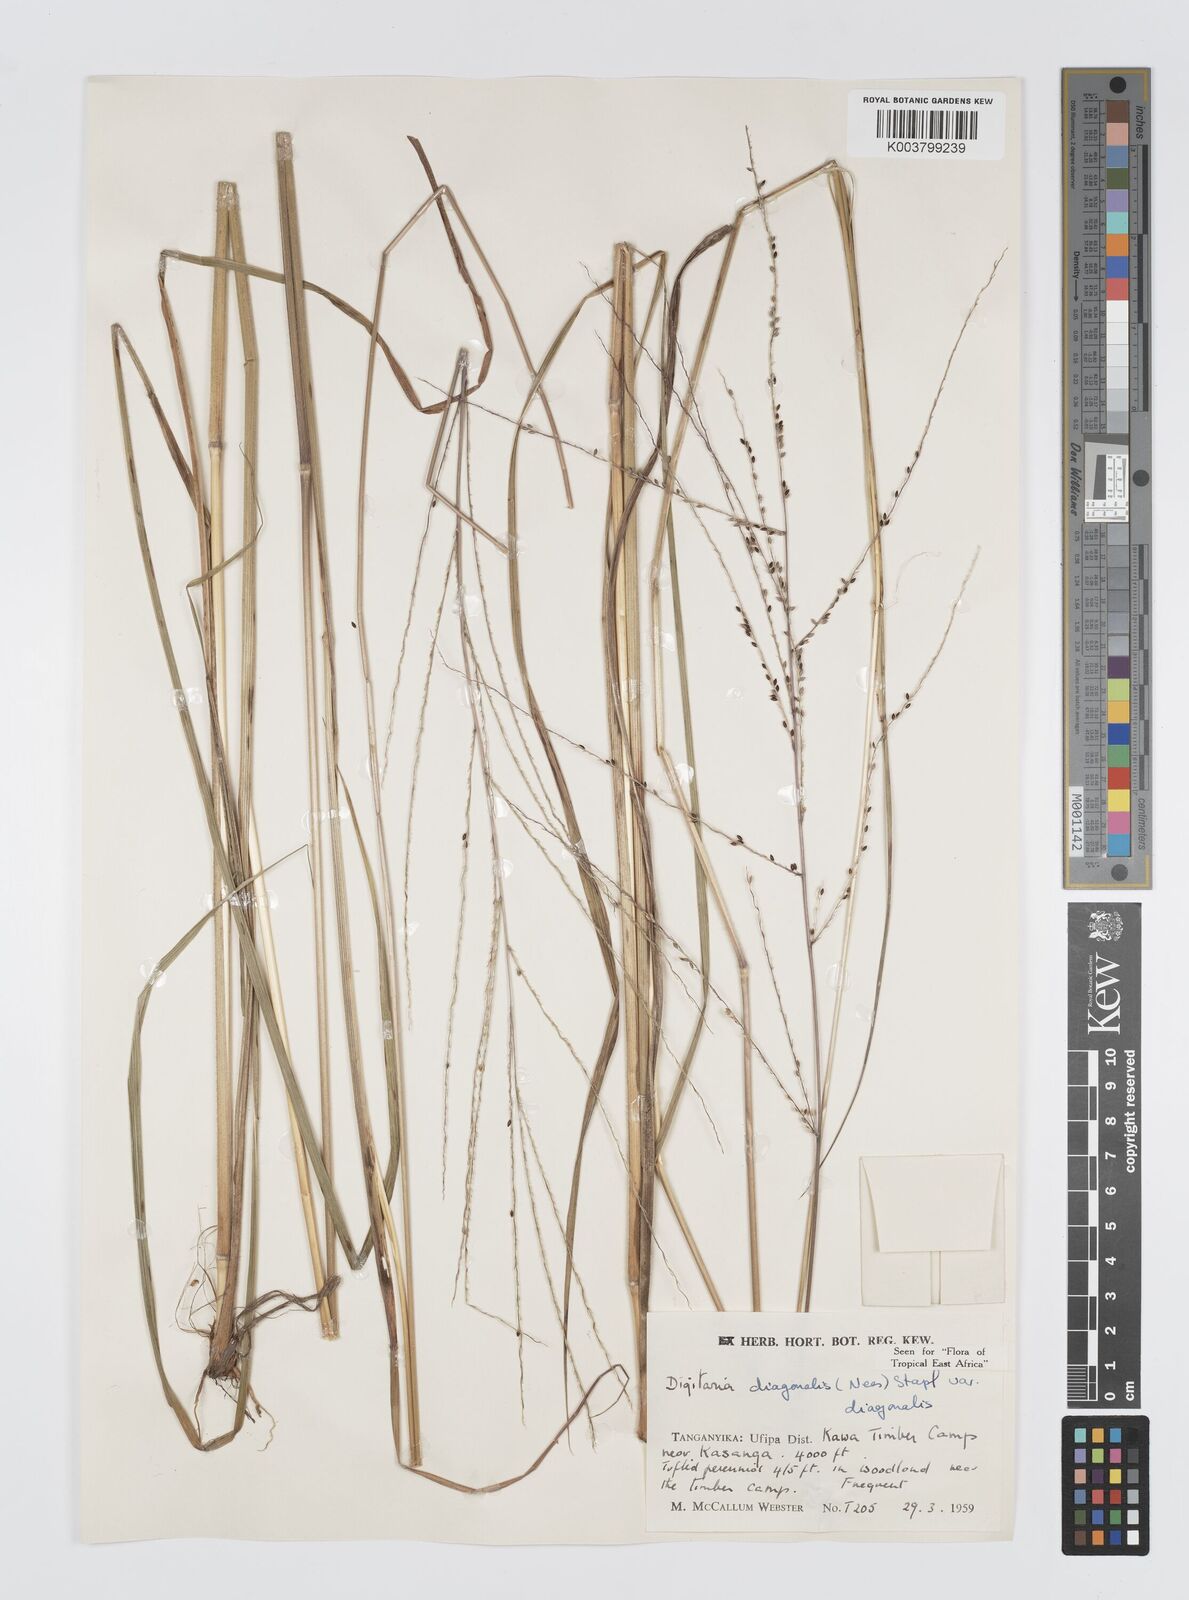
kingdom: Plantae
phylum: Tracheophyta
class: Liliopsida
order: Poales
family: Poaceae
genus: Digitaria
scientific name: Digitaria diagonalis
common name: Brown-seed finger grass
